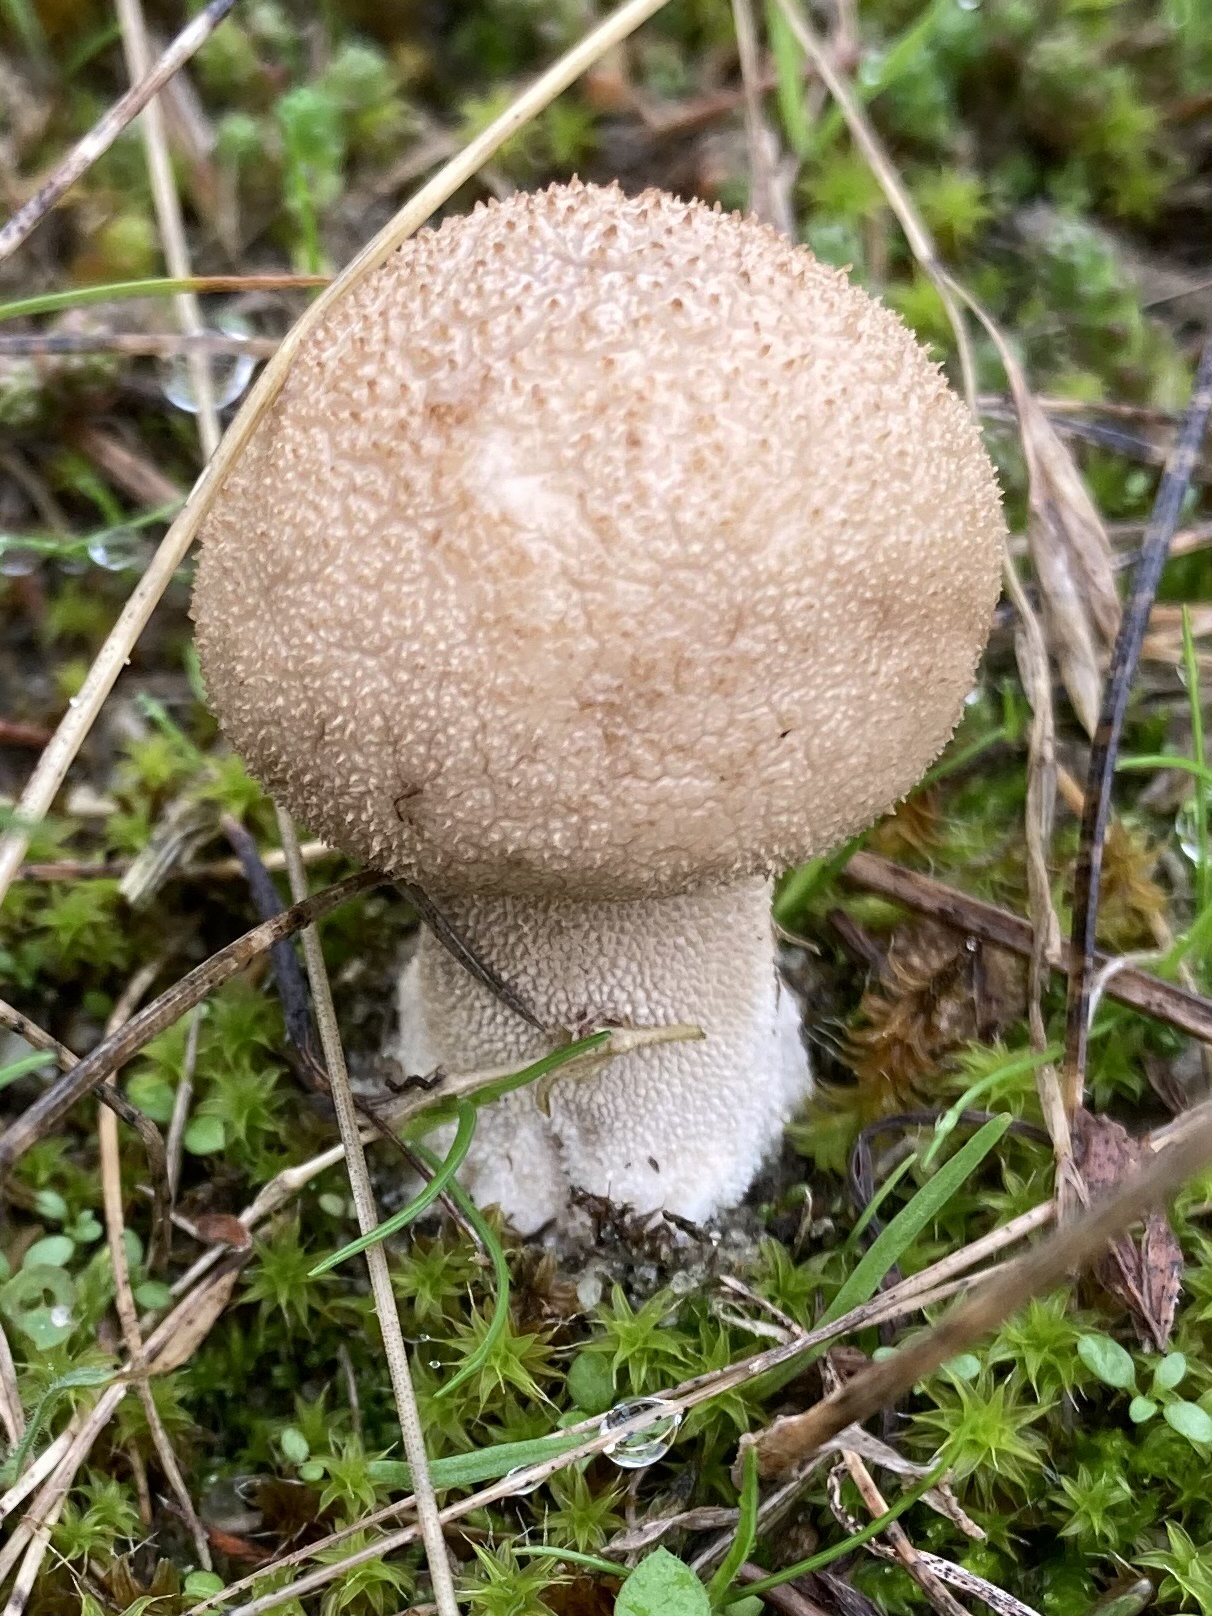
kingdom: Fungi
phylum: Basidiomycota
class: Agaricomycetes
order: Agaricales
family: Agaricaceae
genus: Lycoperdon
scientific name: Lycoperdon
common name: støvbold
